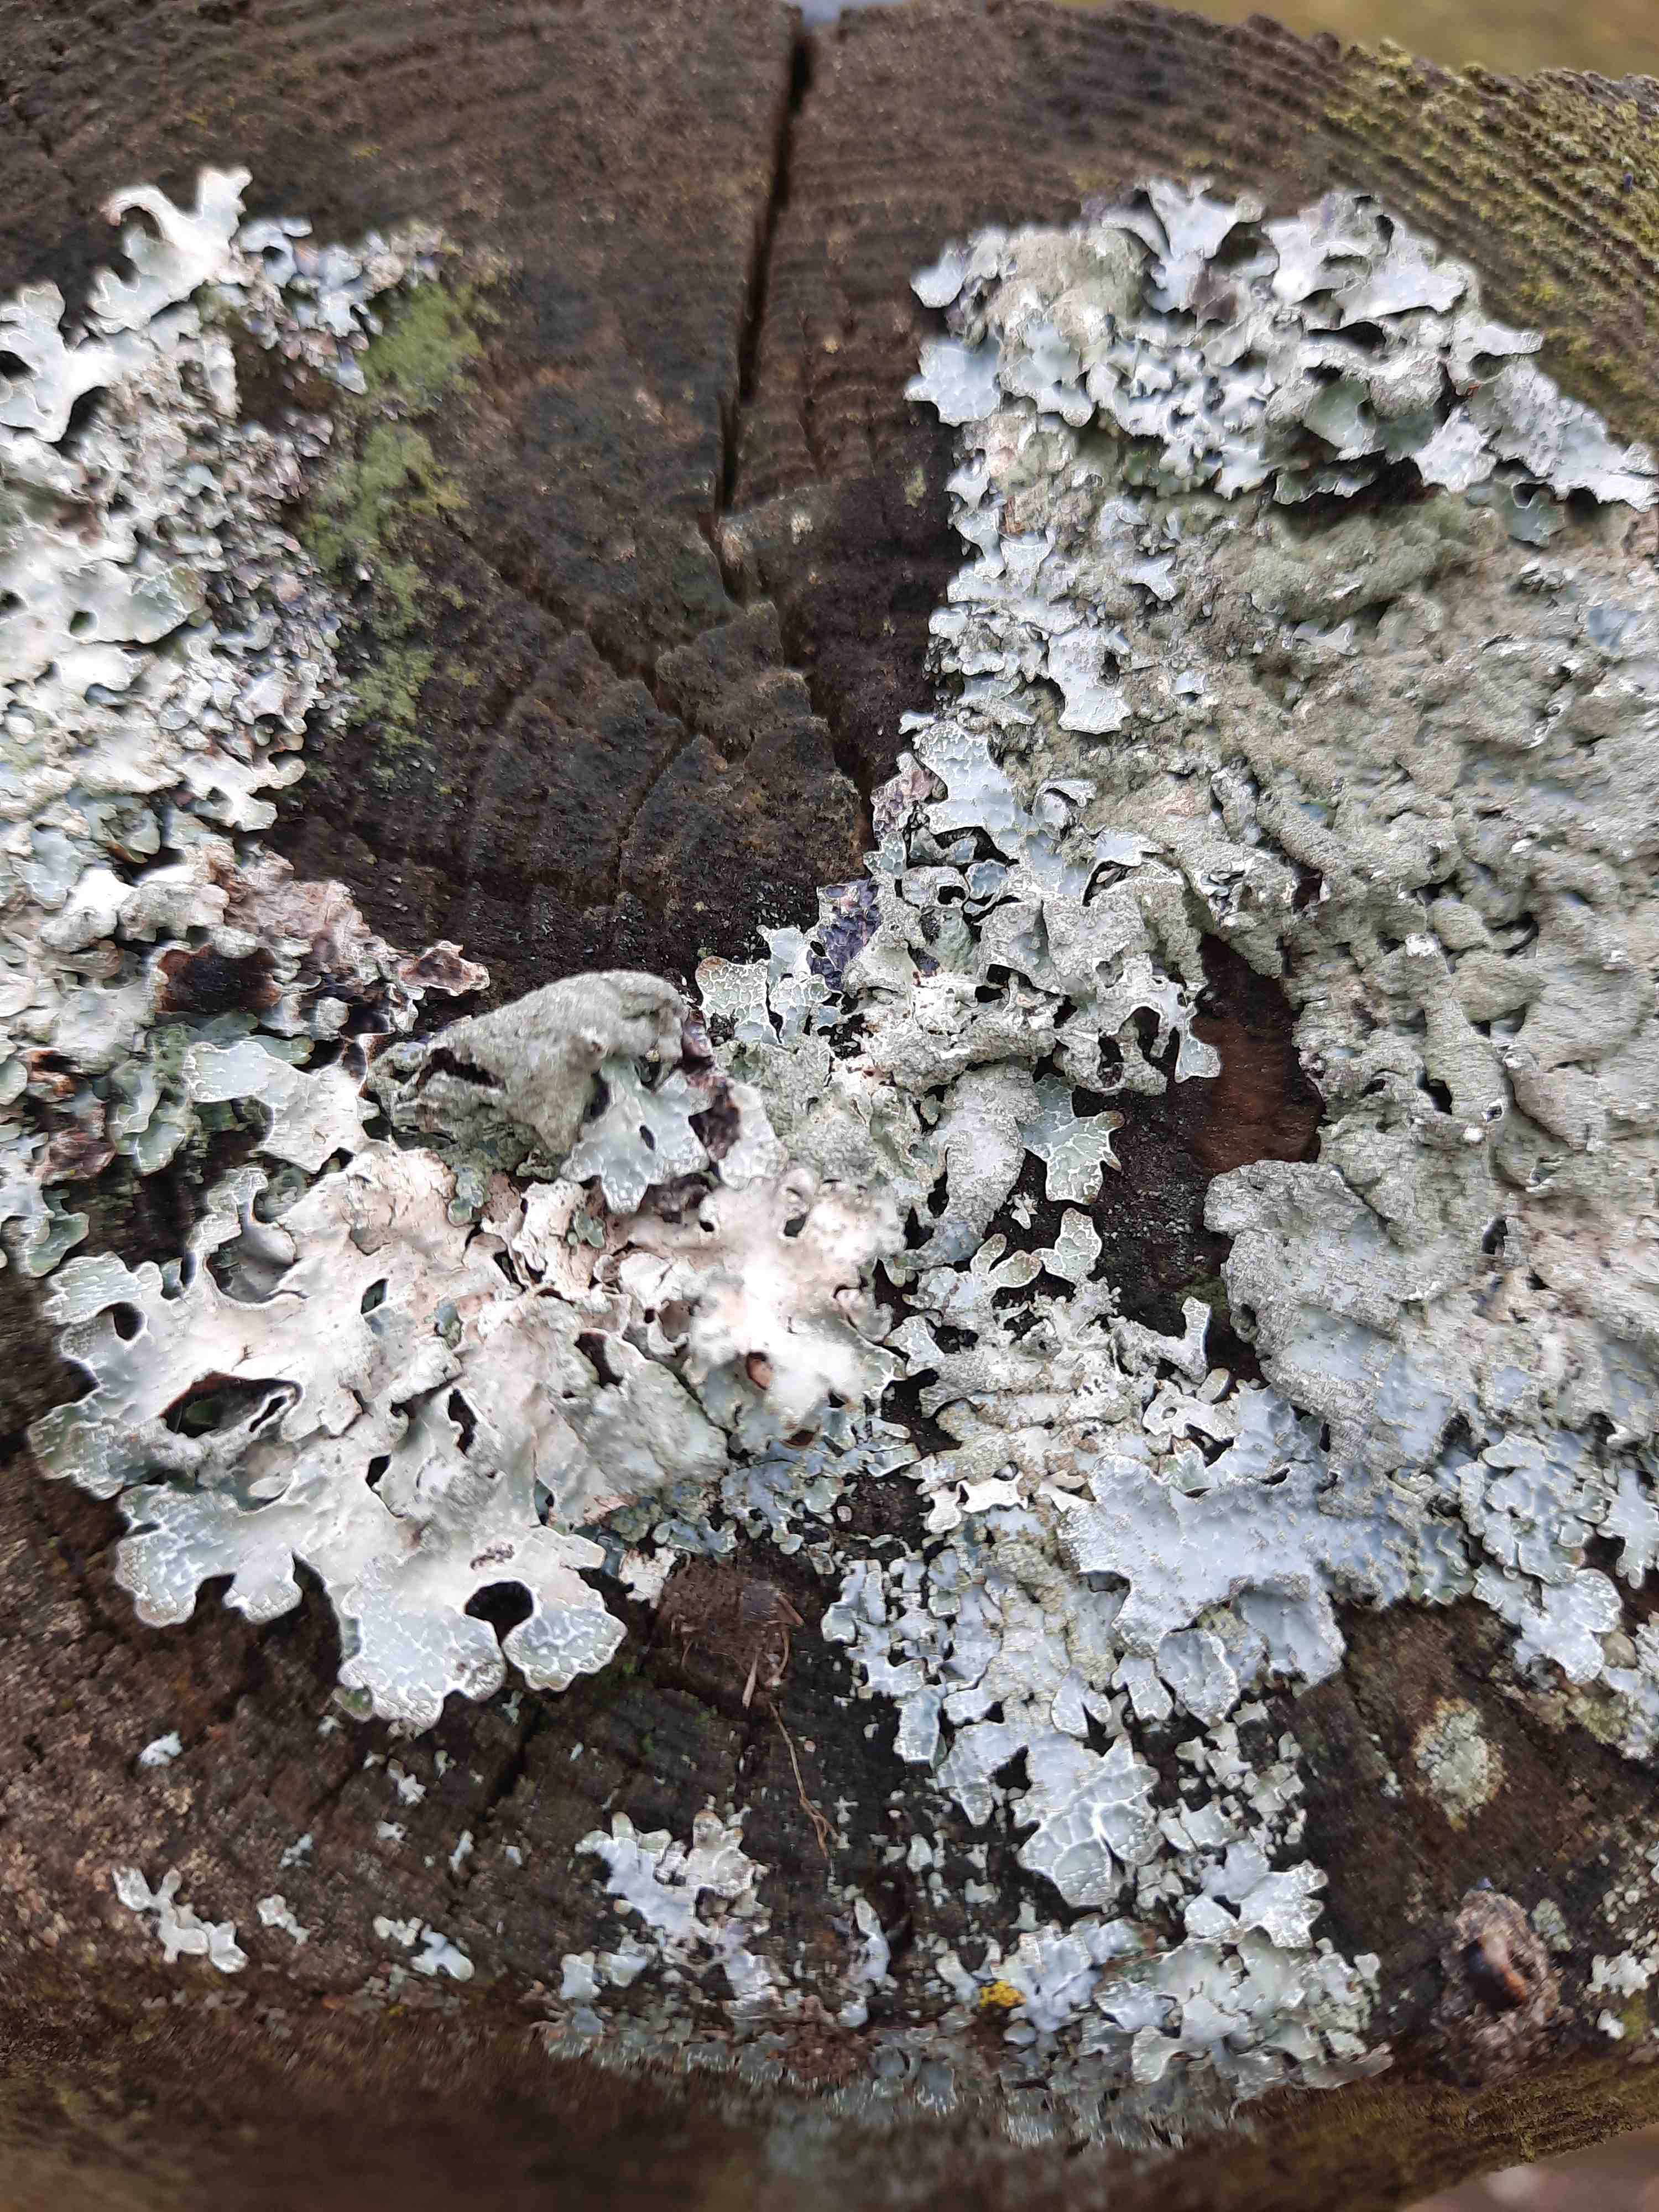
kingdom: Fungi
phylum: Ascomycota
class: Lecanoromycetes
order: Lecanorales
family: Parmeliaceae
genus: Parmelia
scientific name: Parmelia sulcata
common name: rynket skållav
